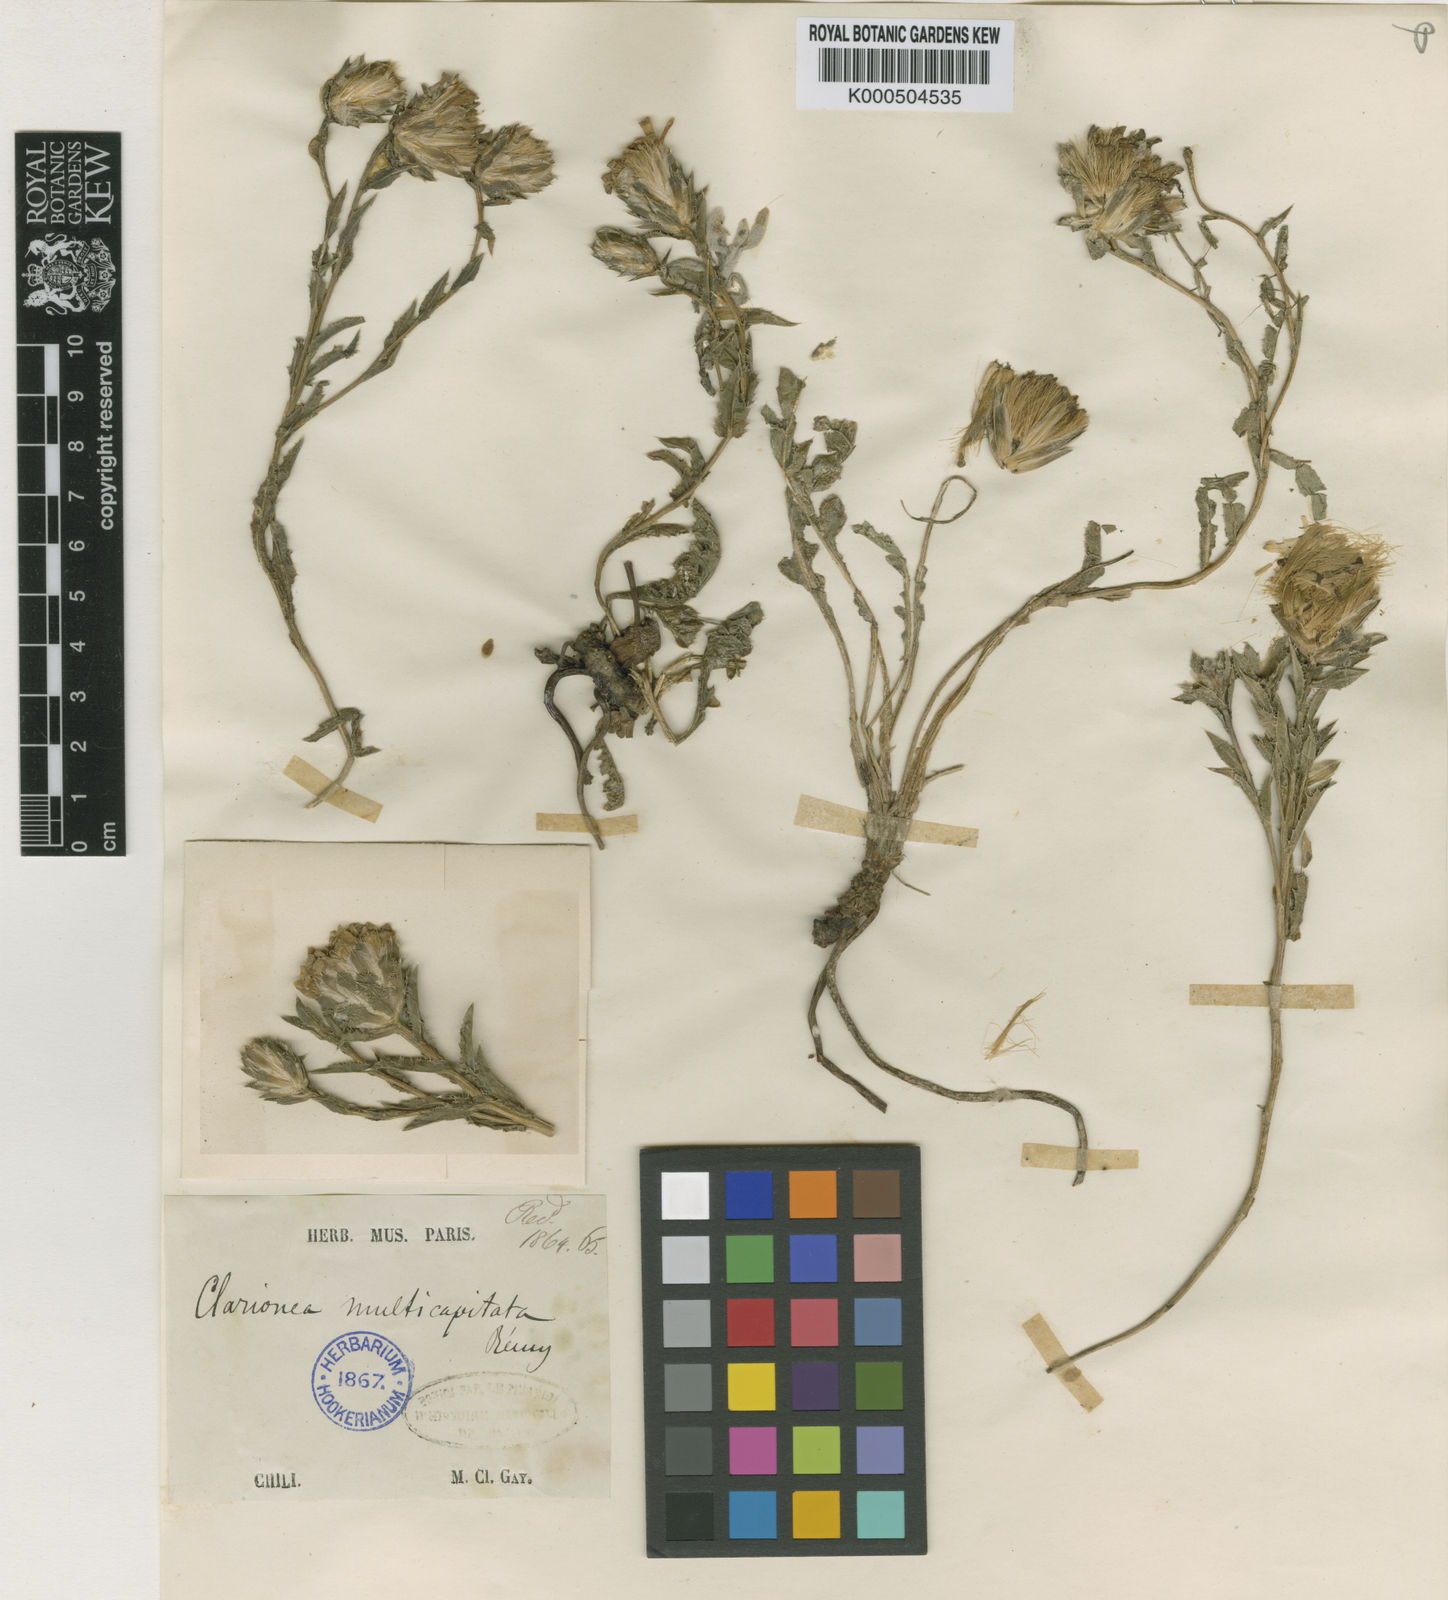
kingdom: Plantae
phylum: Tracheophyta
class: Magnoliopsida
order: Asterales
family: Asteraceae
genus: Perezia
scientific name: Perezia carthamoides
